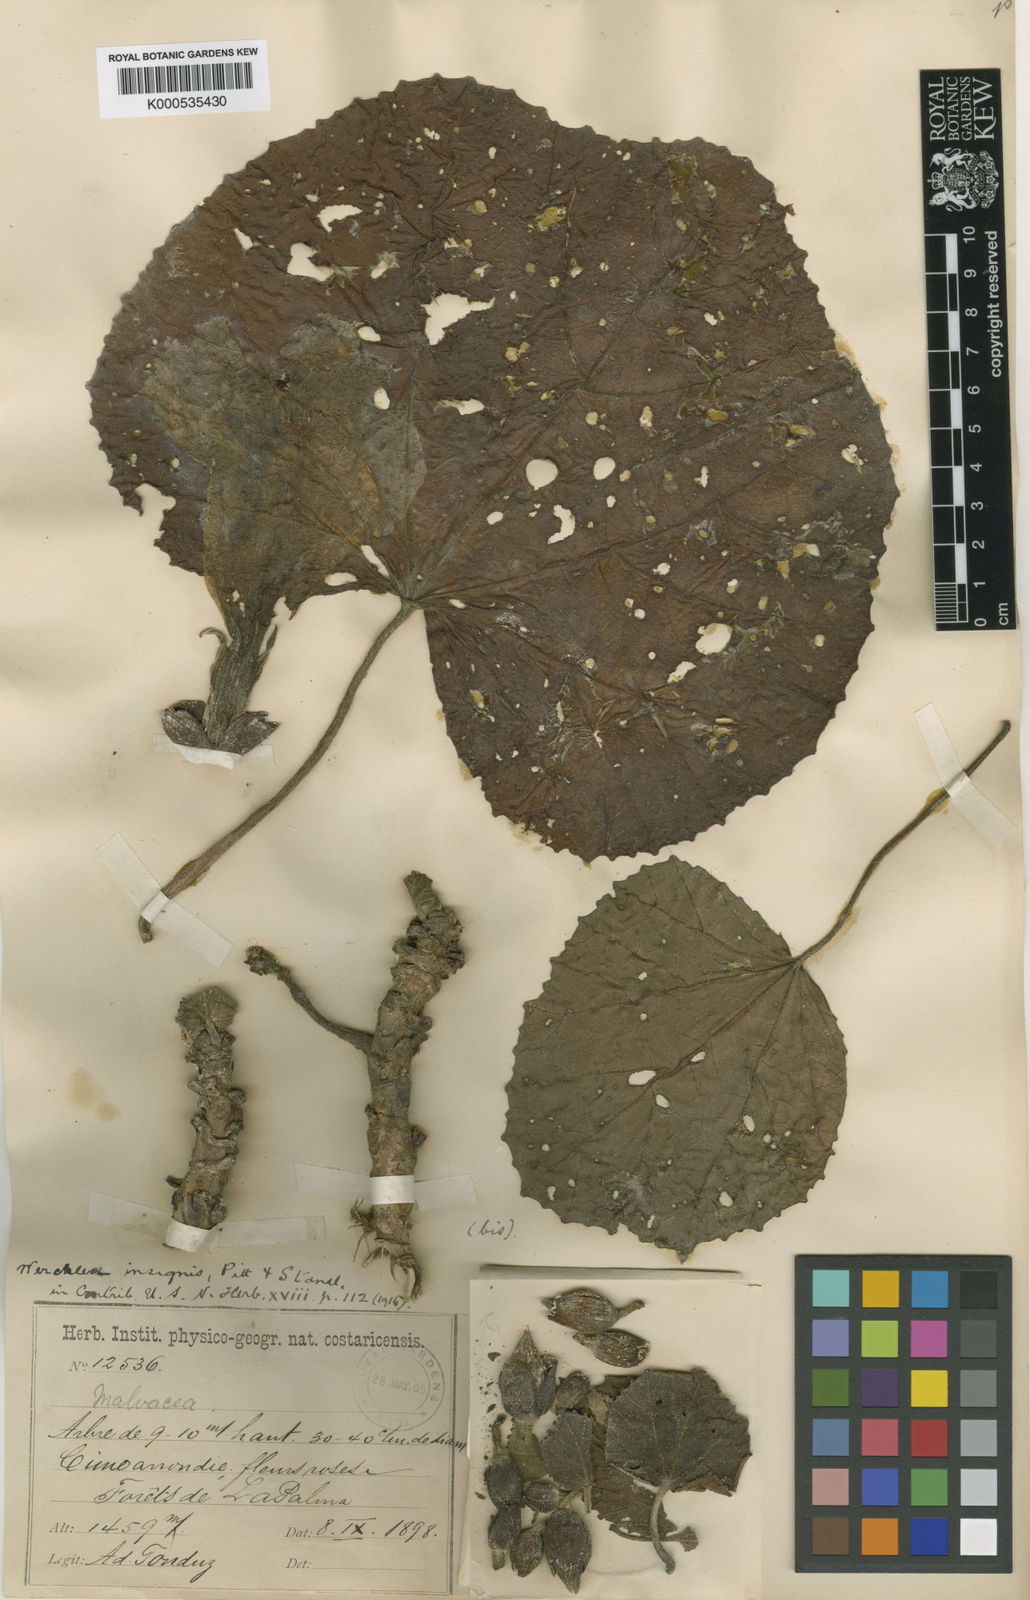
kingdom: Plantae
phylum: Tracheophyta
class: Magnoliopsida
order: Malvales
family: Malvaceae
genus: Wercklea
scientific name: Wercklea insignis
